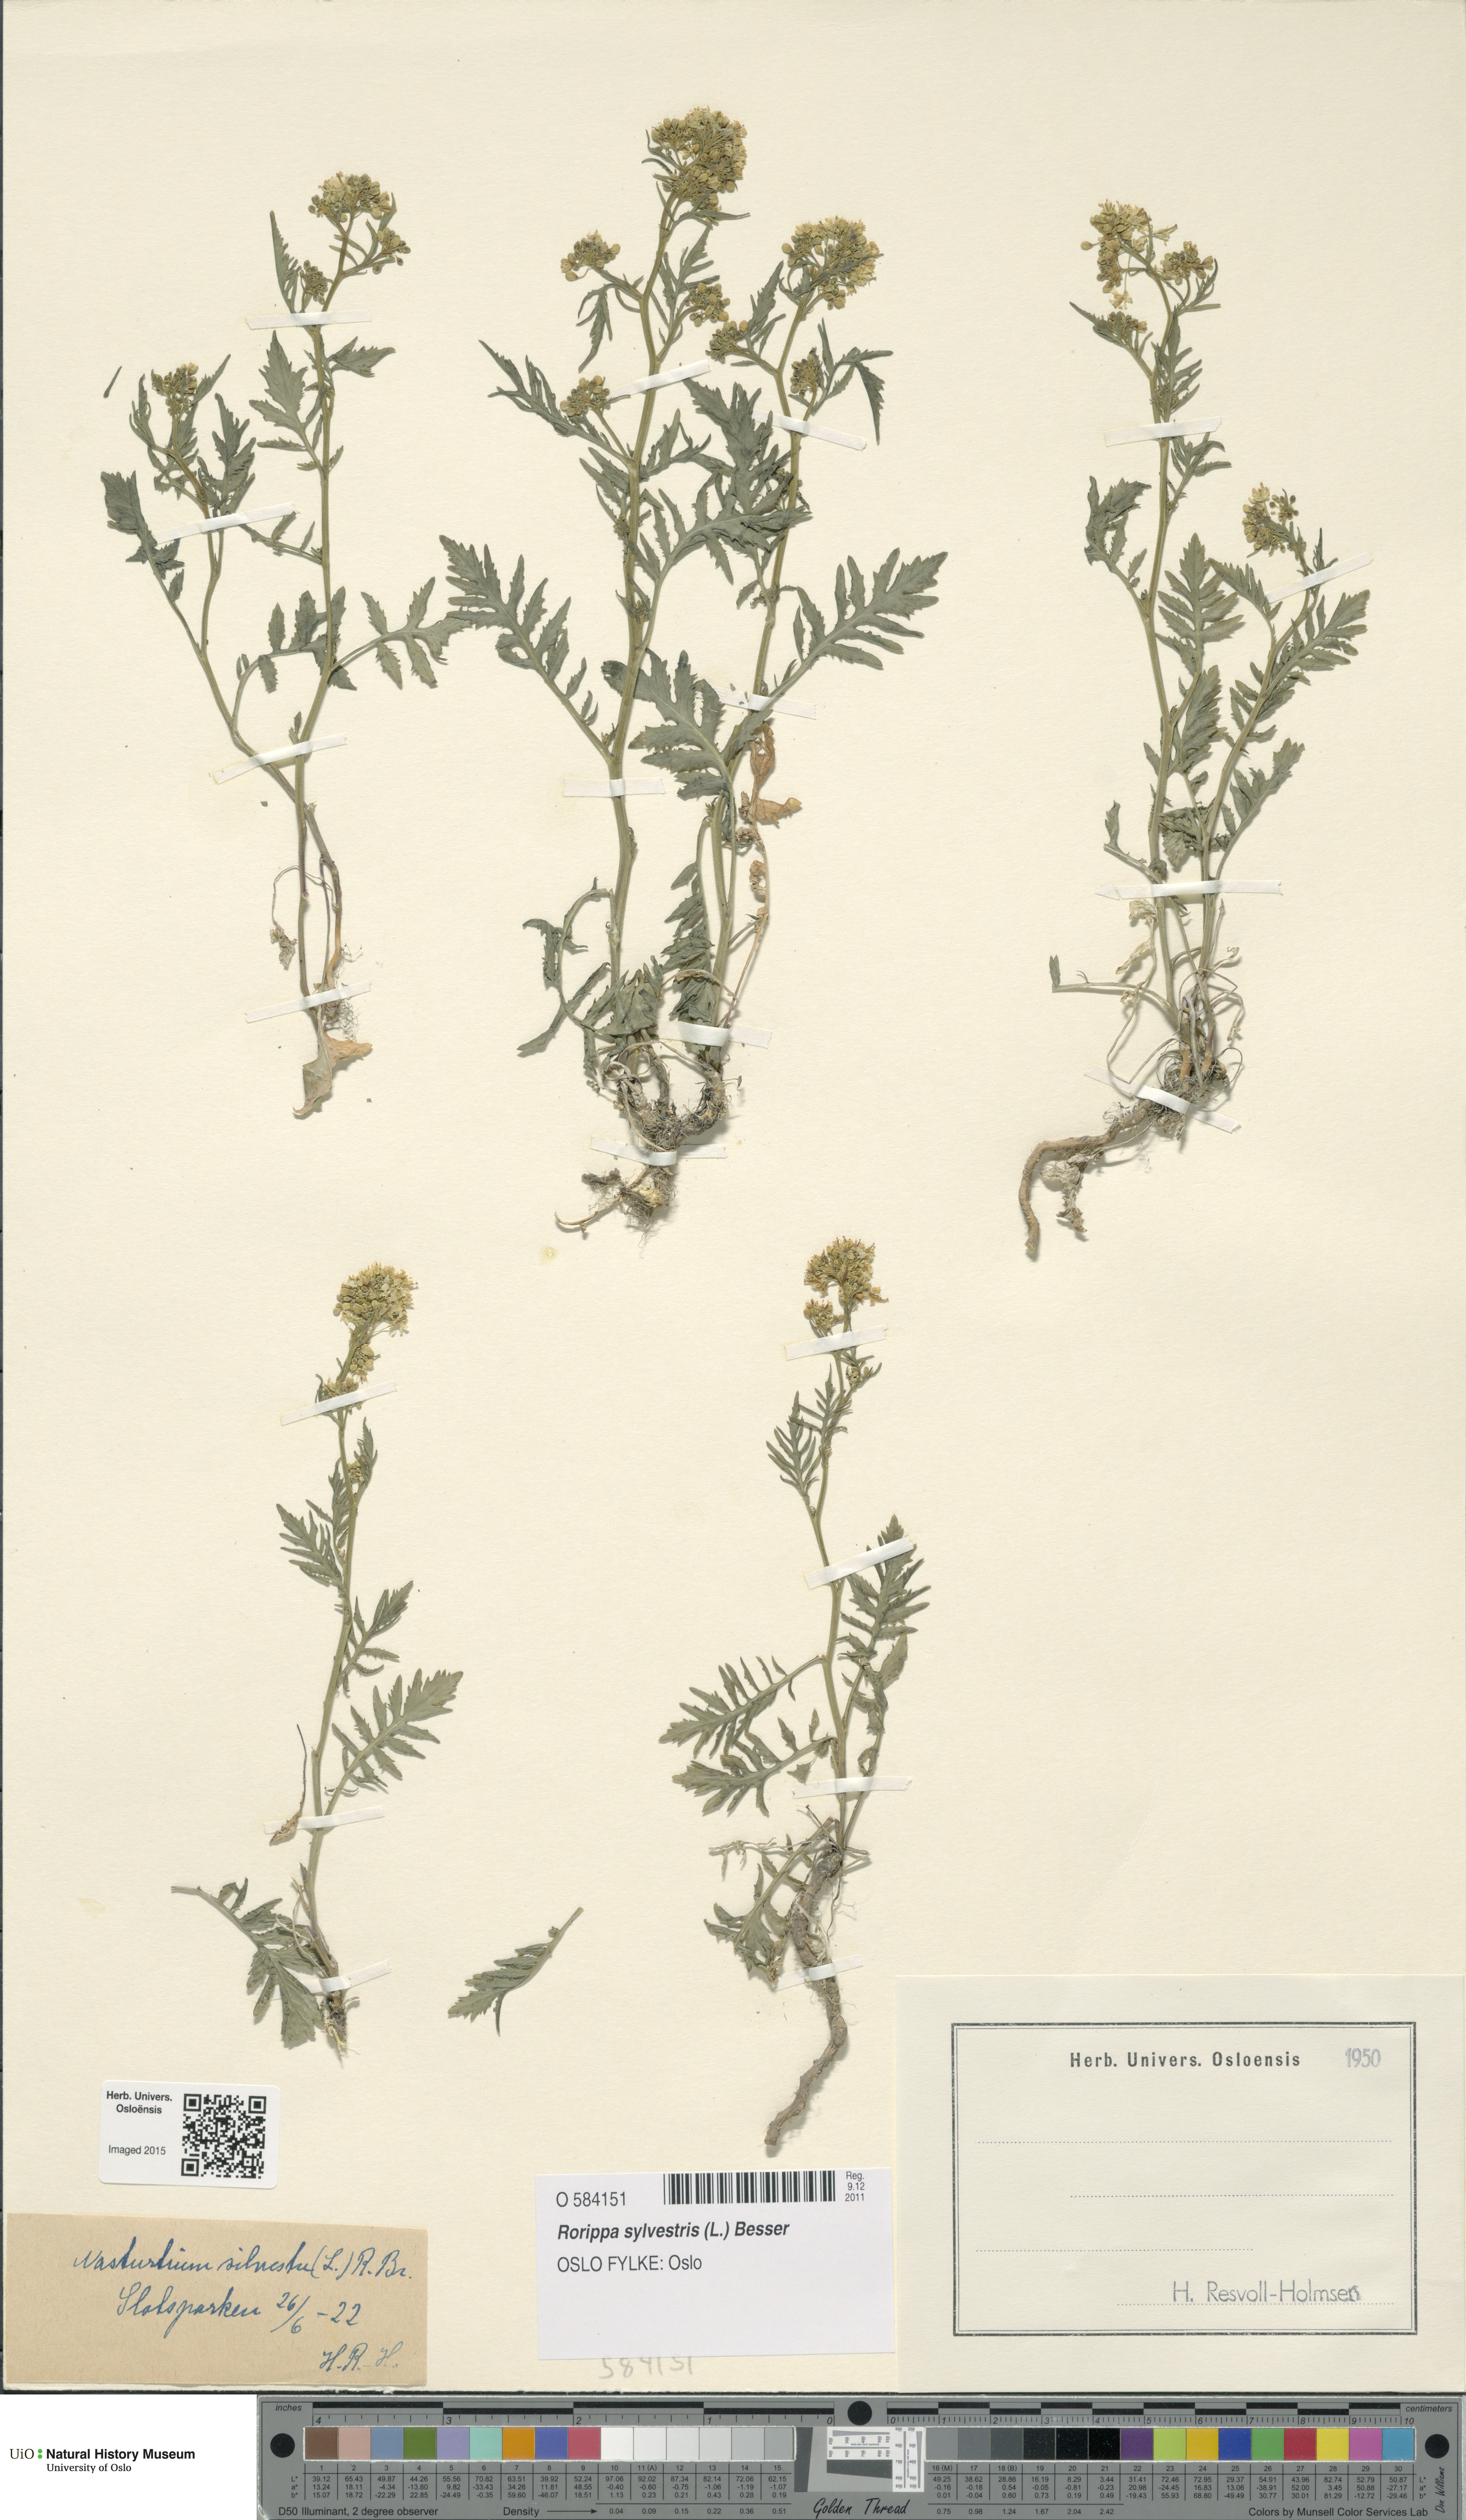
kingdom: Plantae
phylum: Tracheophyta
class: Magnoliopsida
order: Brassicales
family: Brassicaceae
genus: Rorippa
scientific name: Rorippa sylvestris
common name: Creeping yellowcress
